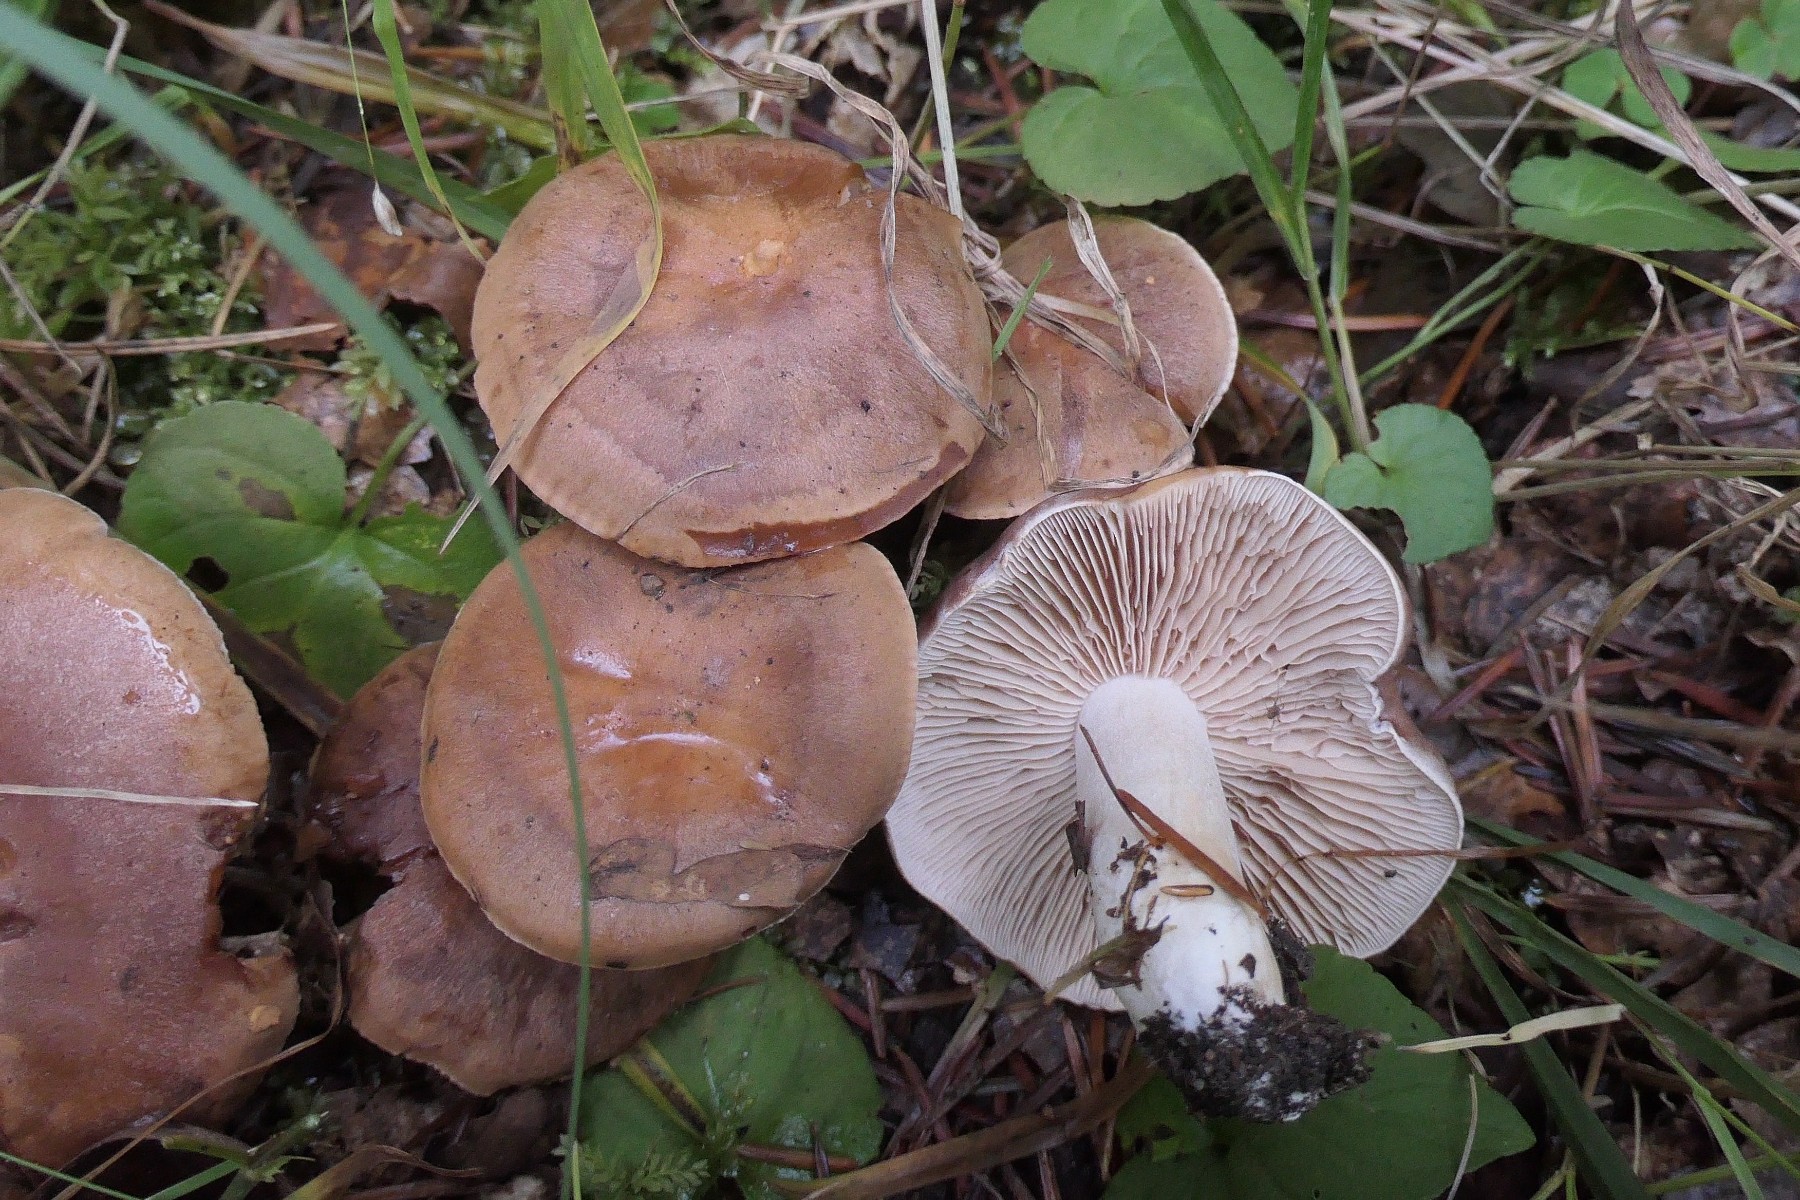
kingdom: Fungi
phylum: Basidiomycota
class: Agaricomycetes
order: Agaricales
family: Hymenogastraceae
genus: Hebeloma
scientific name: Hebeloma theobrominum
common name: rødbrun tåreblad
